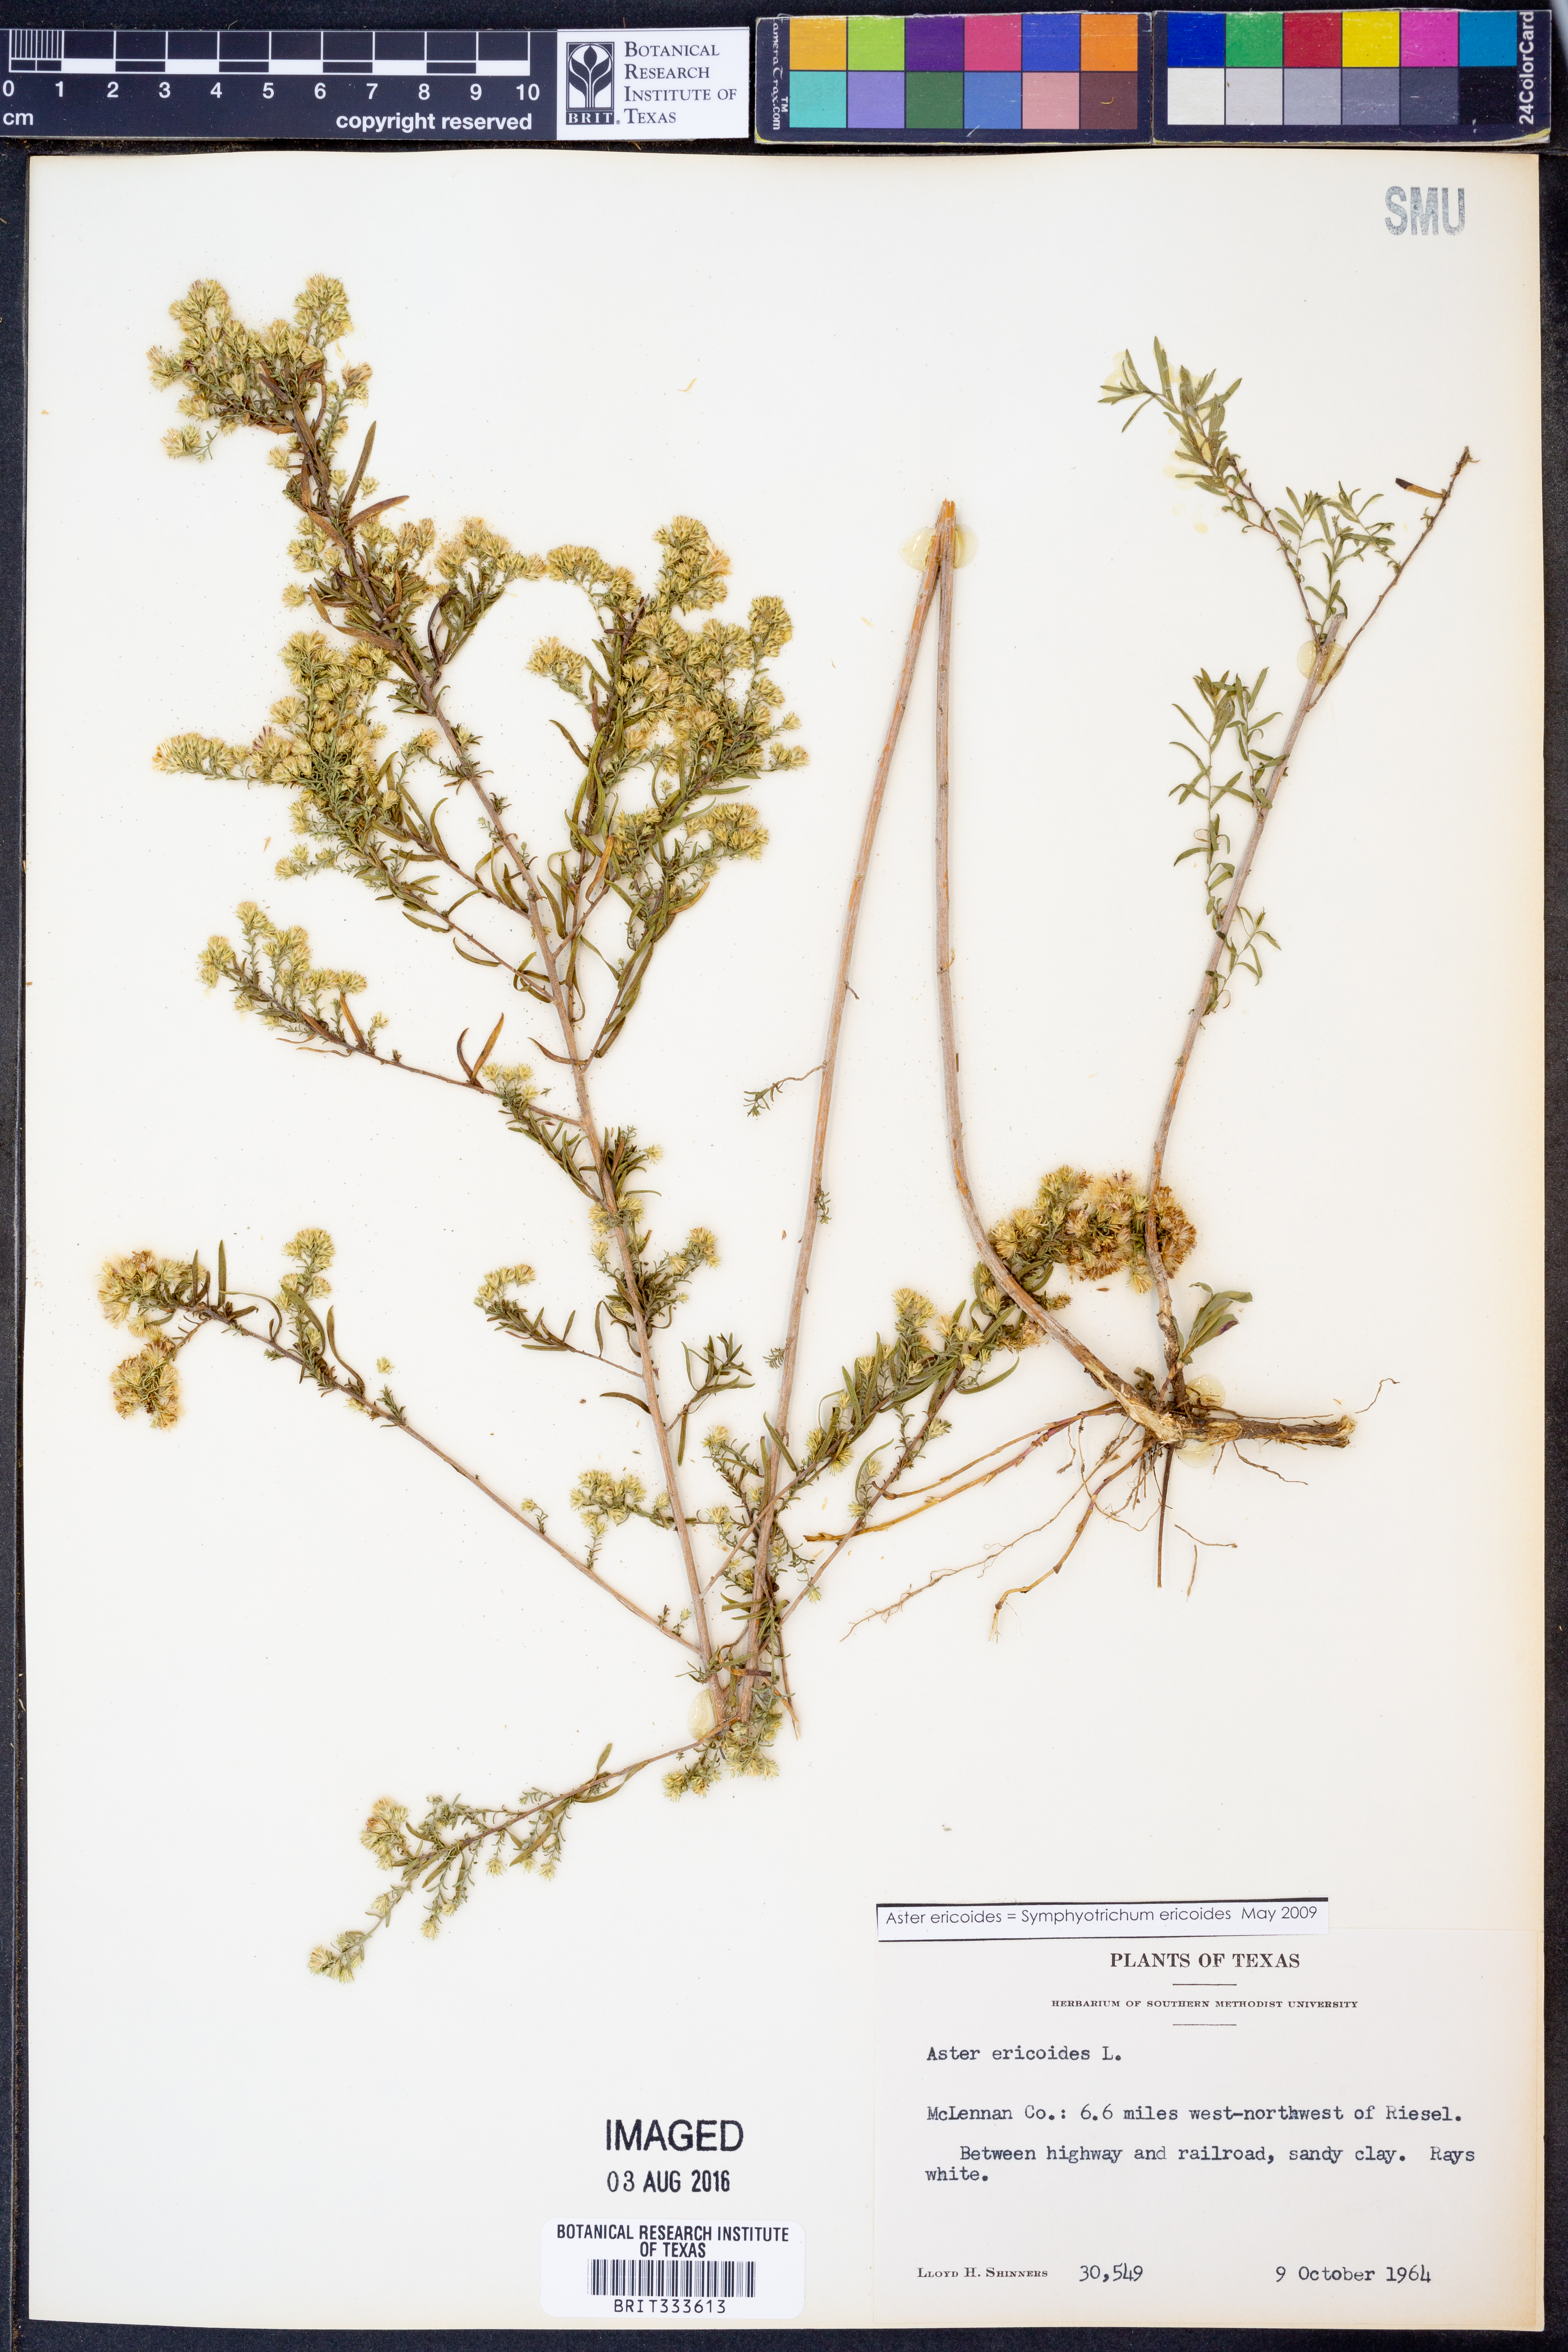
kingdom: Plantae
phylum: Tracheophyta
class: Magnoliopsida
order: Asterales
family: Asteraceae
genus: Symphyotrichum
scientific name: Symphyotrichum ericoides
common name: Heath aster
